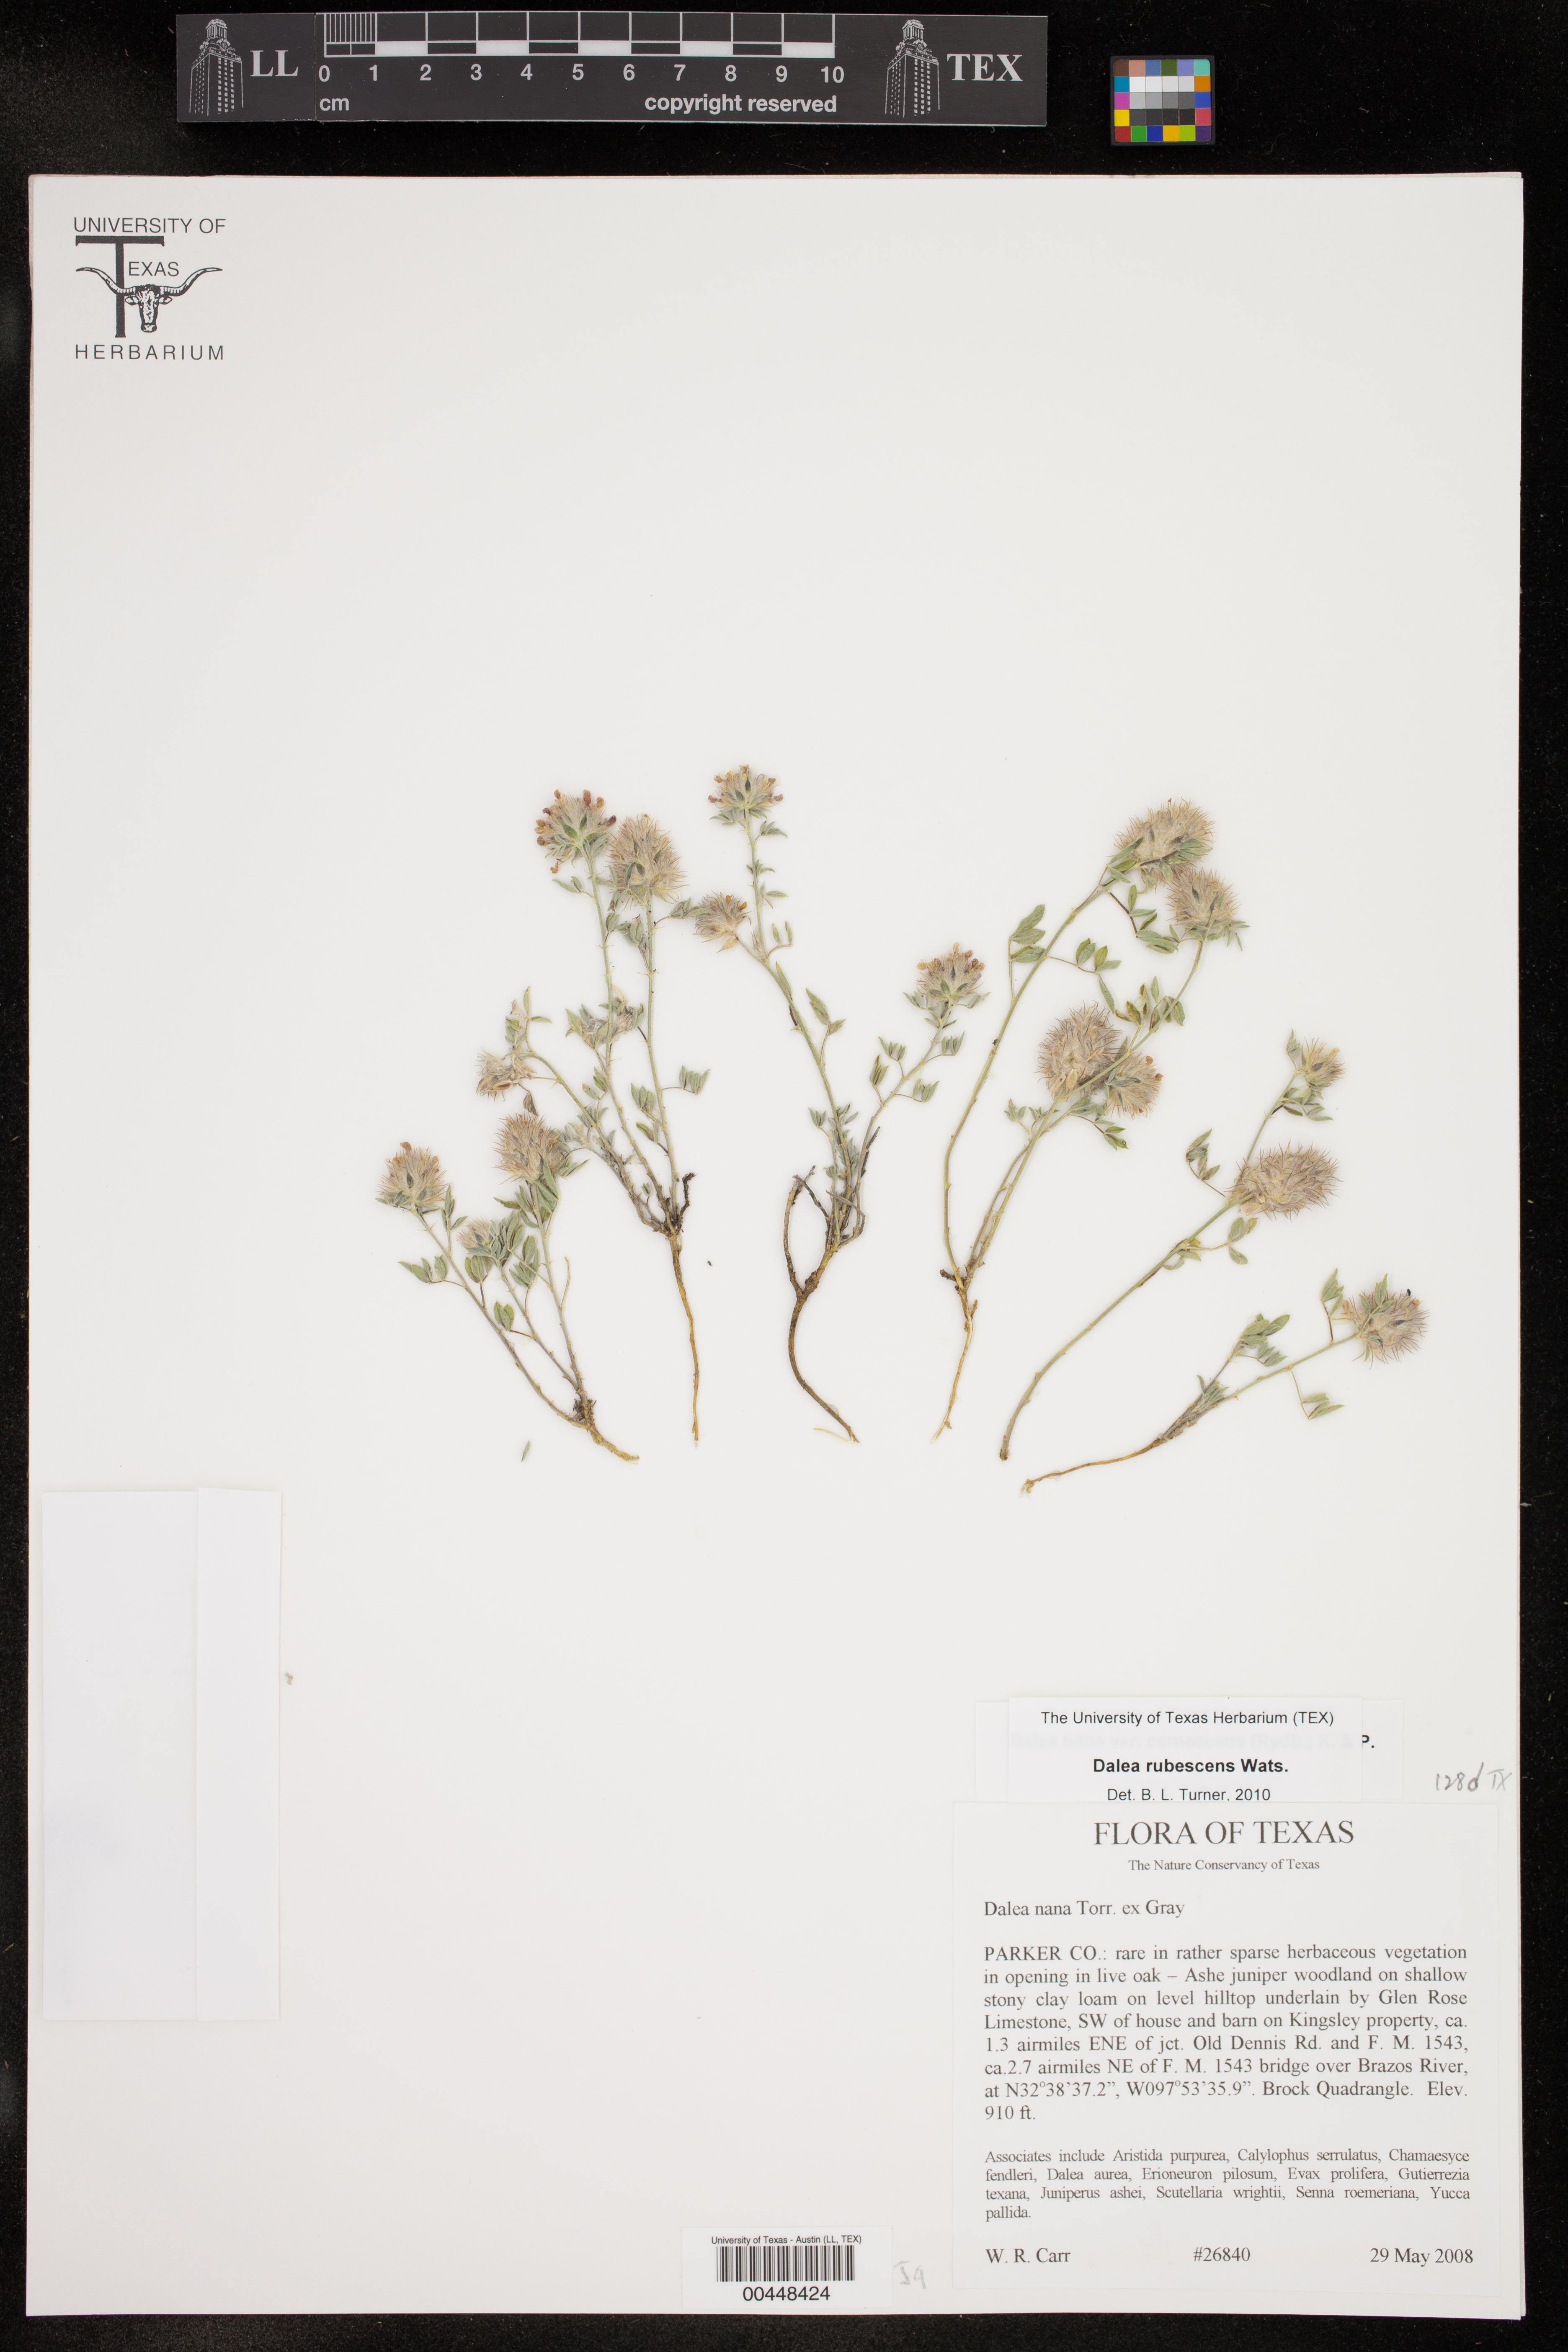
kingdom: Plantae
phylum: Tracheophyta
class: Magnoliopsida
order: Fabales
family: Fabaceae
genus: Dalea
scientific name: Dalea rubescens
